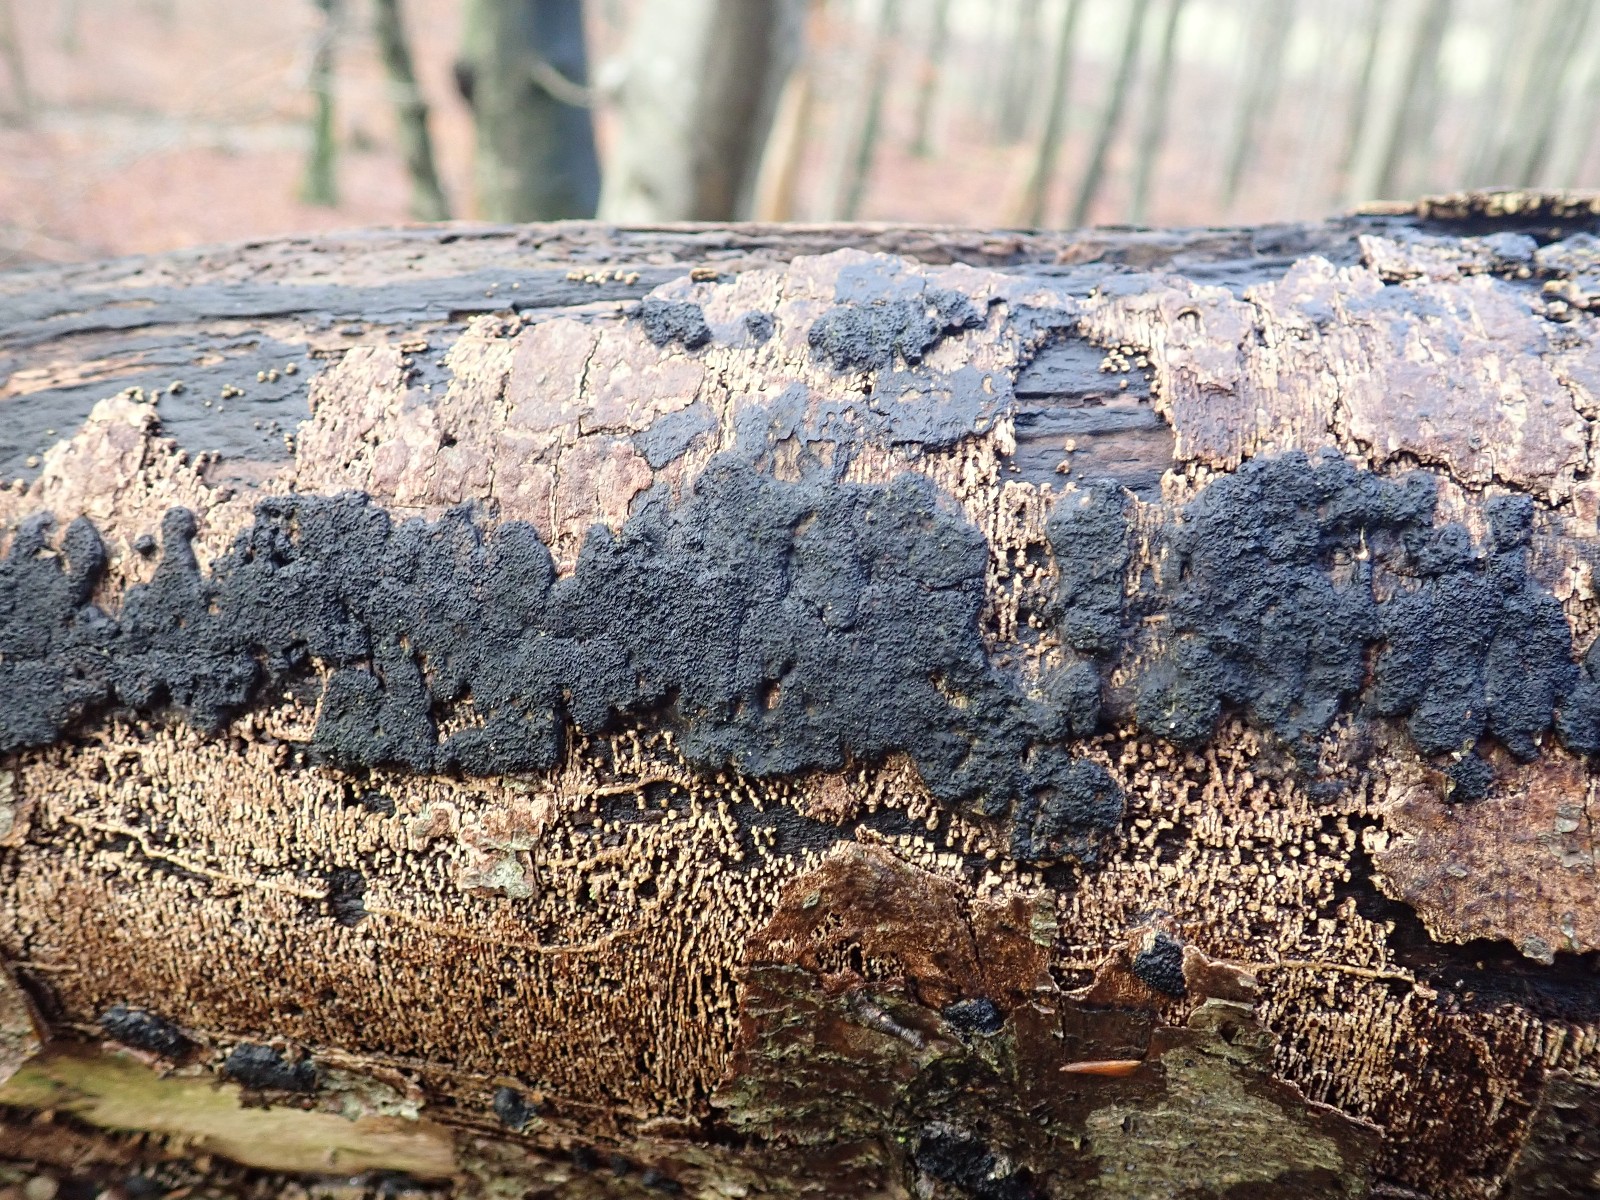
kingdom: Fungi
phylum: Ascomycota
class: Sordariomycetes
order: Xylariales
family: Diatrypaceae
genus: Eutypa
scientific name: Eutypa spinosa
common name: grov kulskorpe
